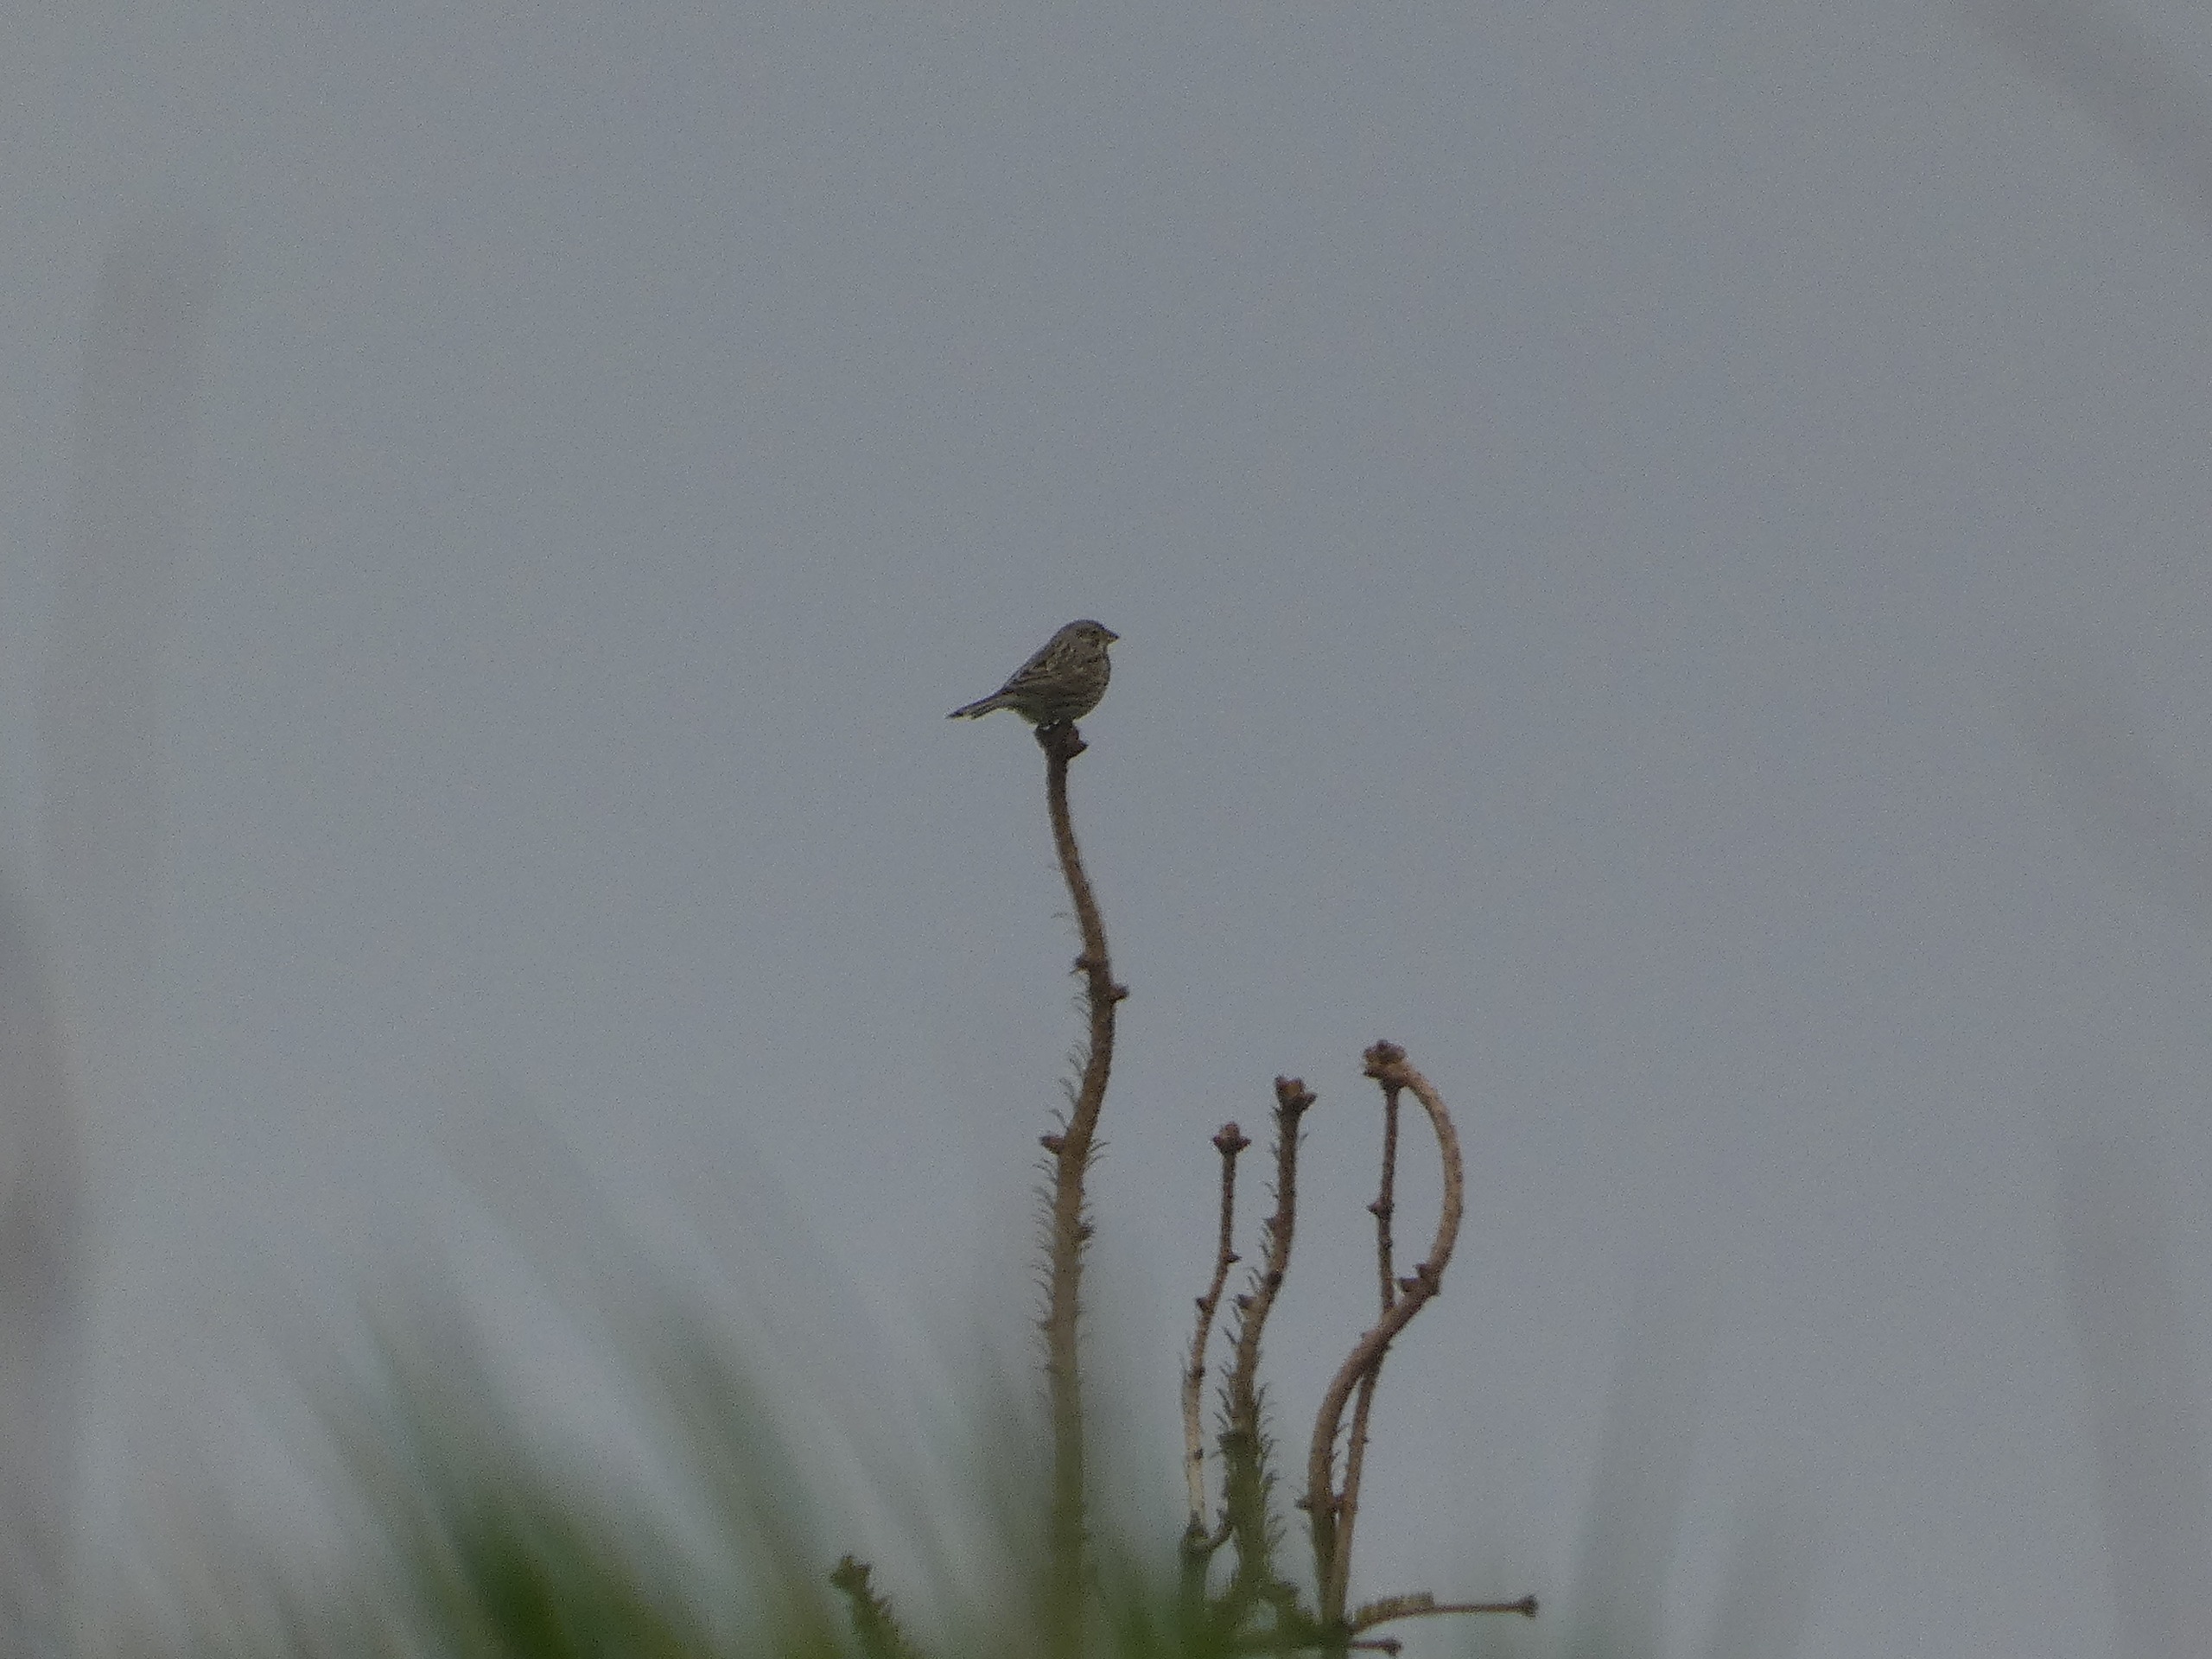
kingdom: Animalia
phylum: Chordata
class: Aves
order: Passeriformes
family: Emberizidae
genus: Emberiza
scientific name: Emberiza calandra
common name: Bomlærke
